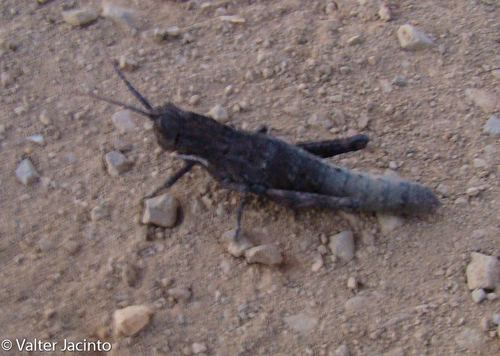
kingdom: Animalia
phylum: Arthropoda
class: Insecta
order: Orthoptera
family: Pamphagidae
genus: Acinipe
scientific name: Acinipe paulinoi
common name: Paulino's stone grasshopper
